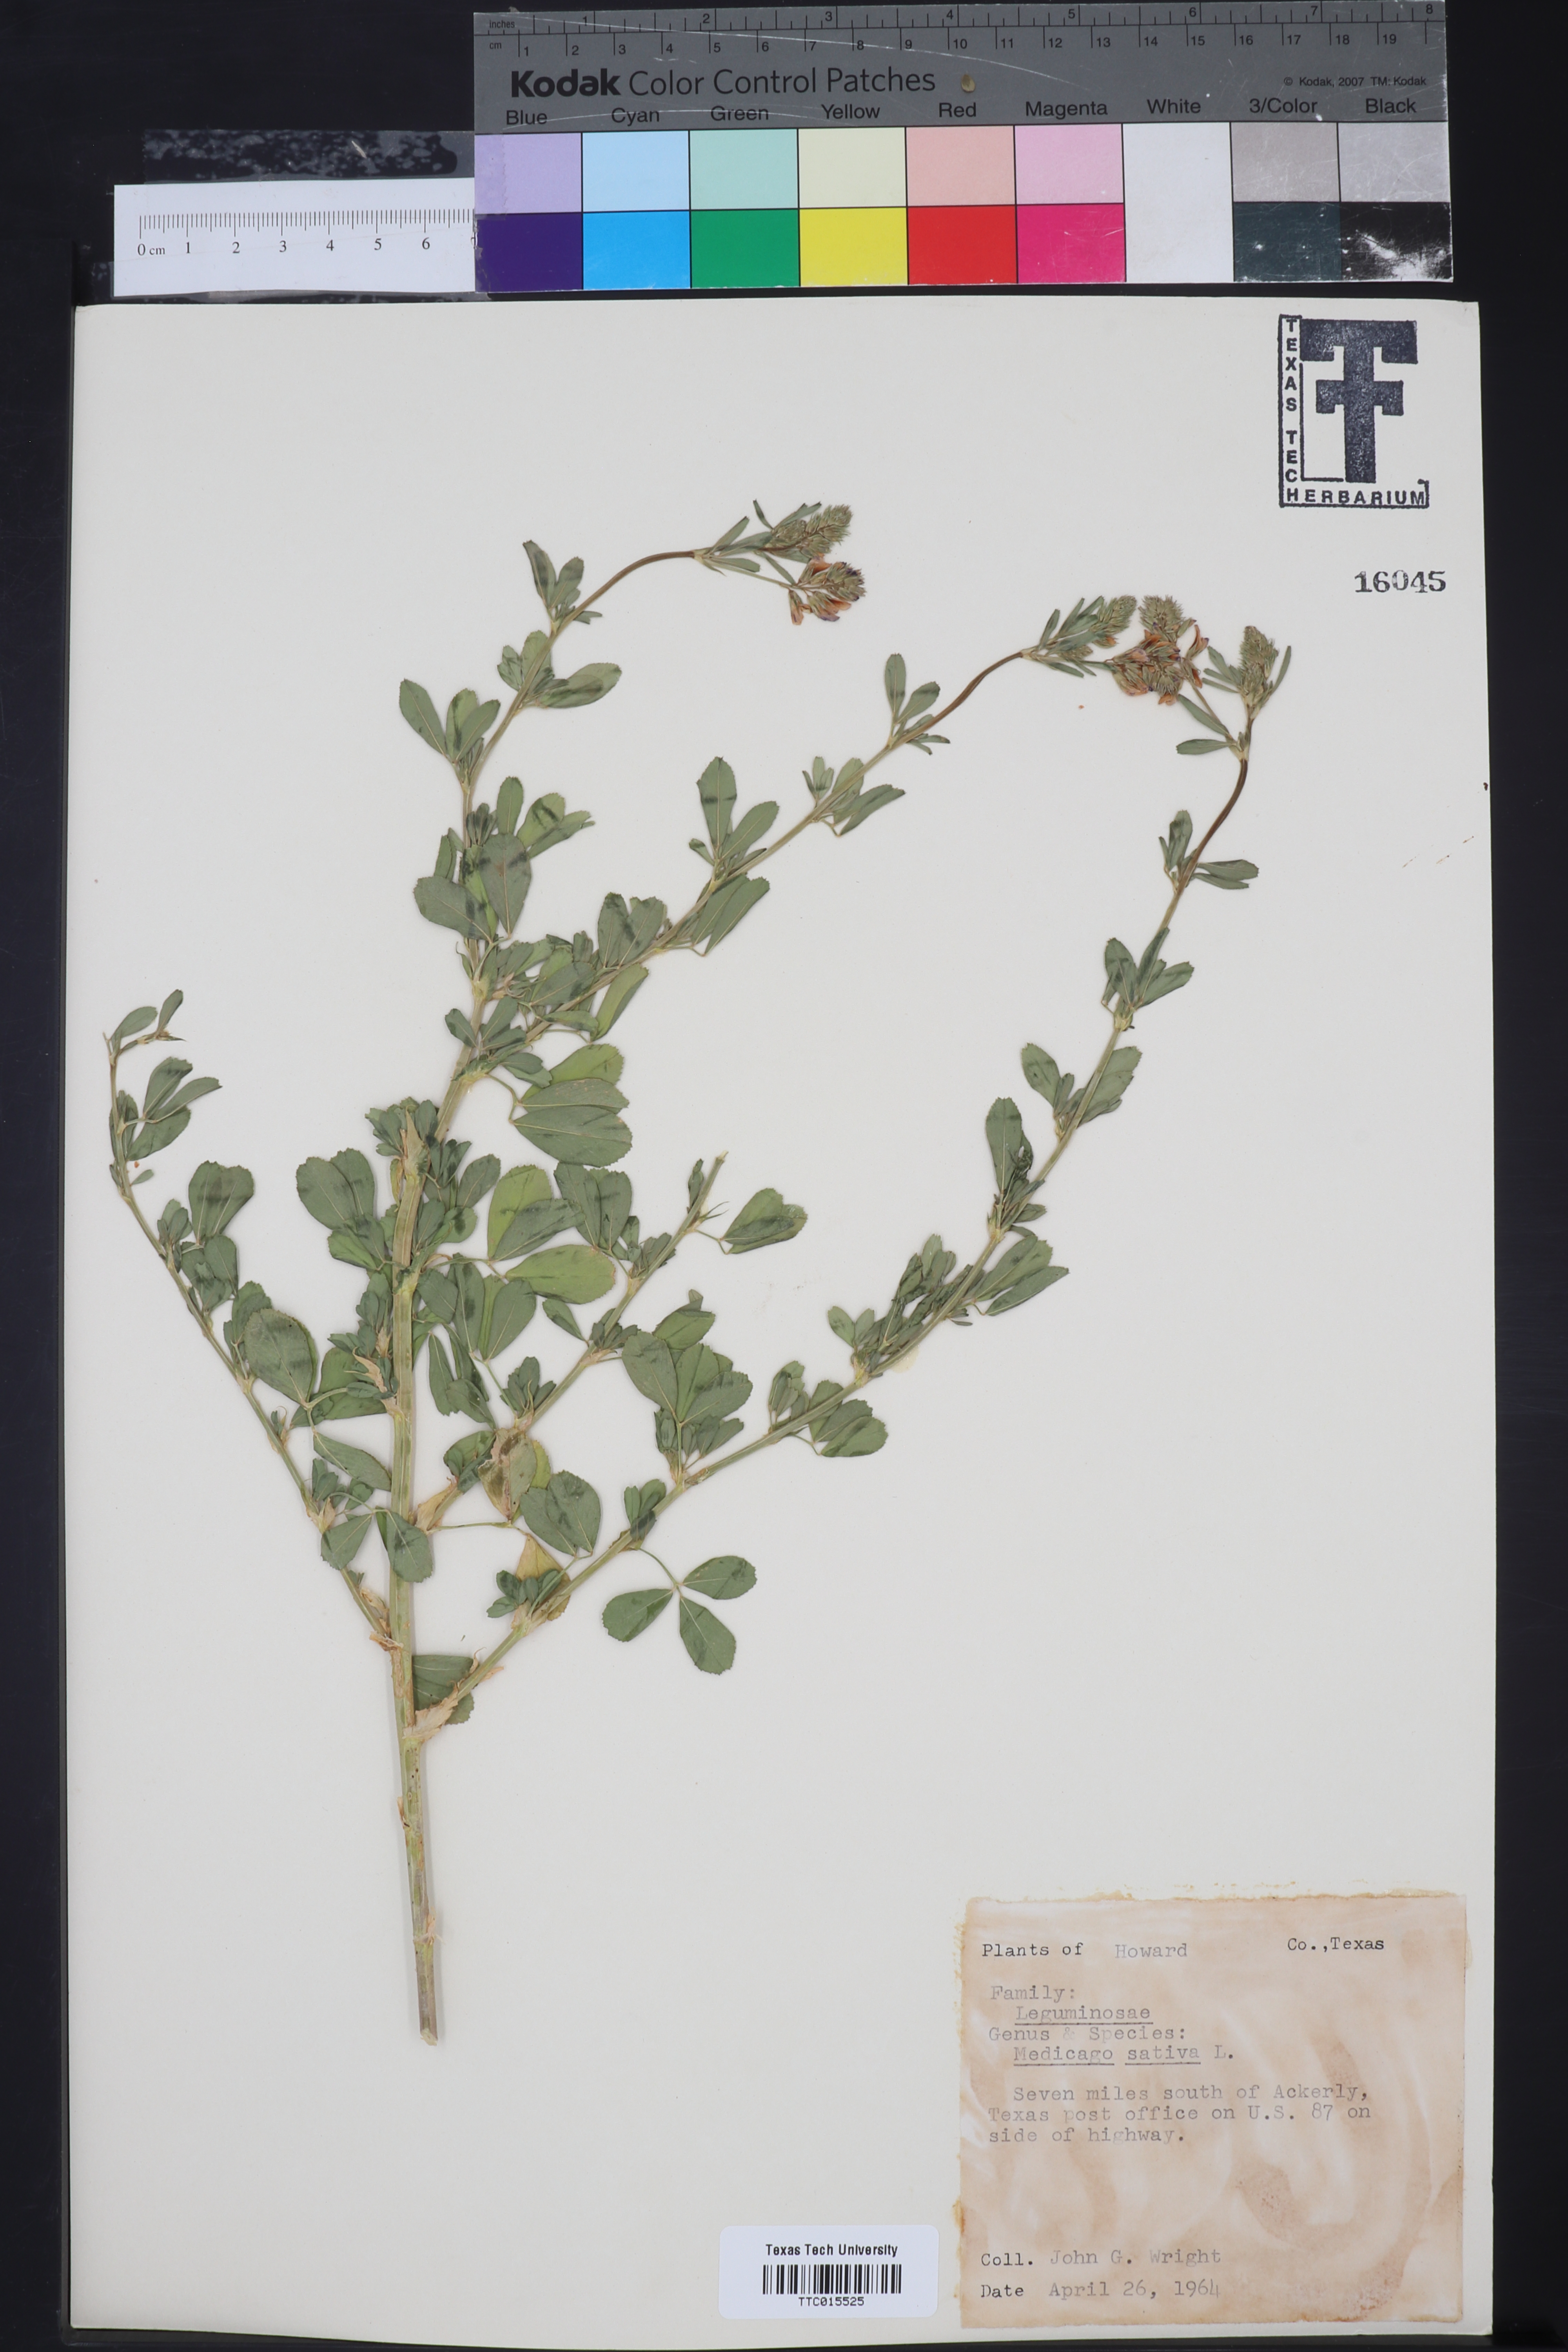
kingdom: Plantae
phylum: Tracheophyta
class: Magnoliopsida
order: Fabales
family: Fabaceae
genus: Medicago
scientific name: Medicago sativa
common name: Alfalfa
